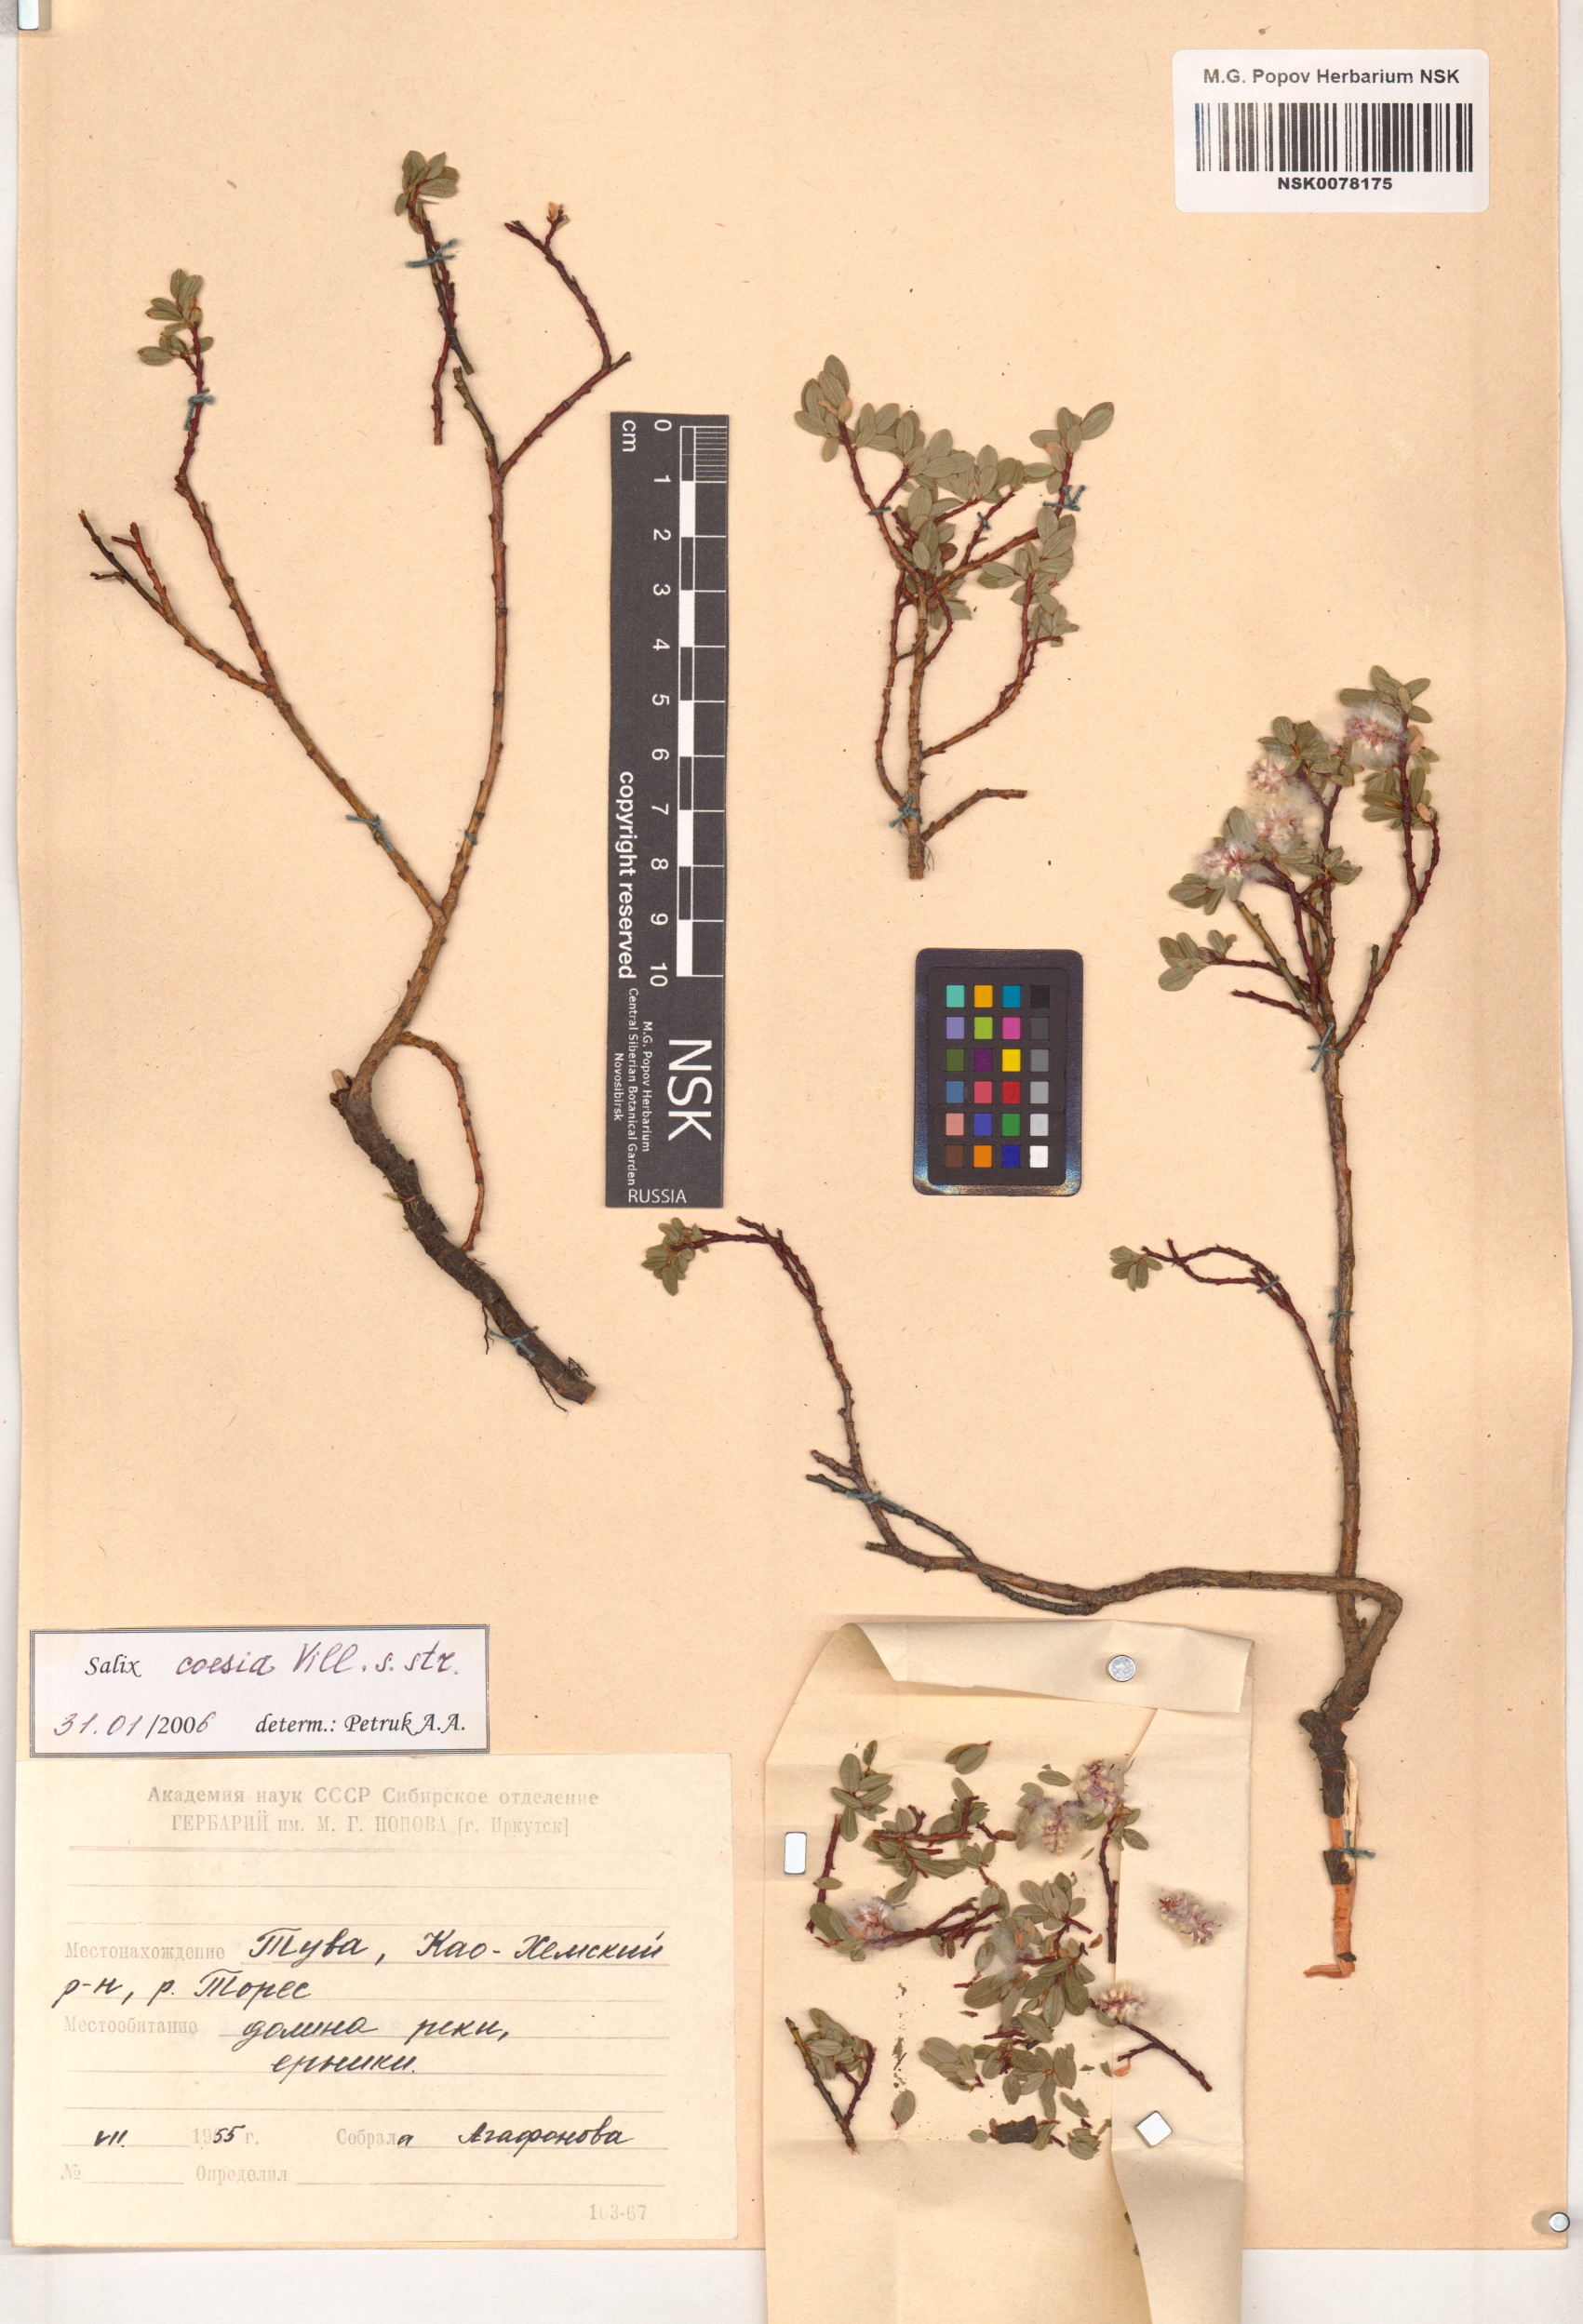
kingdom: Plantae
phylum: Tracheophyta
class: Magnoliopsida
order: Malpighiales
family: Salicaceae
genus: Salix
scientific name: Salix caesia
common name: Blue willow
